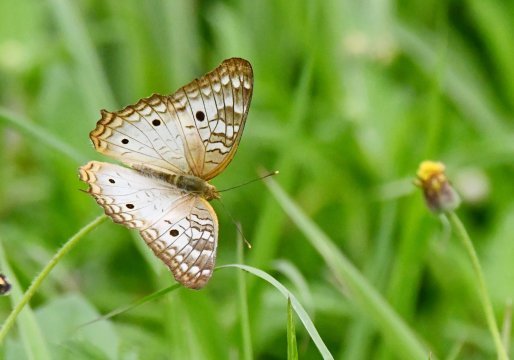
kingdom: Animalia
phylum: Arthropoda
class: Insecta
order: Lepidoptera
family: Nymphalidae
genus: Anartia
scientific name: Anartia jatrophae
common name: White Peacock
